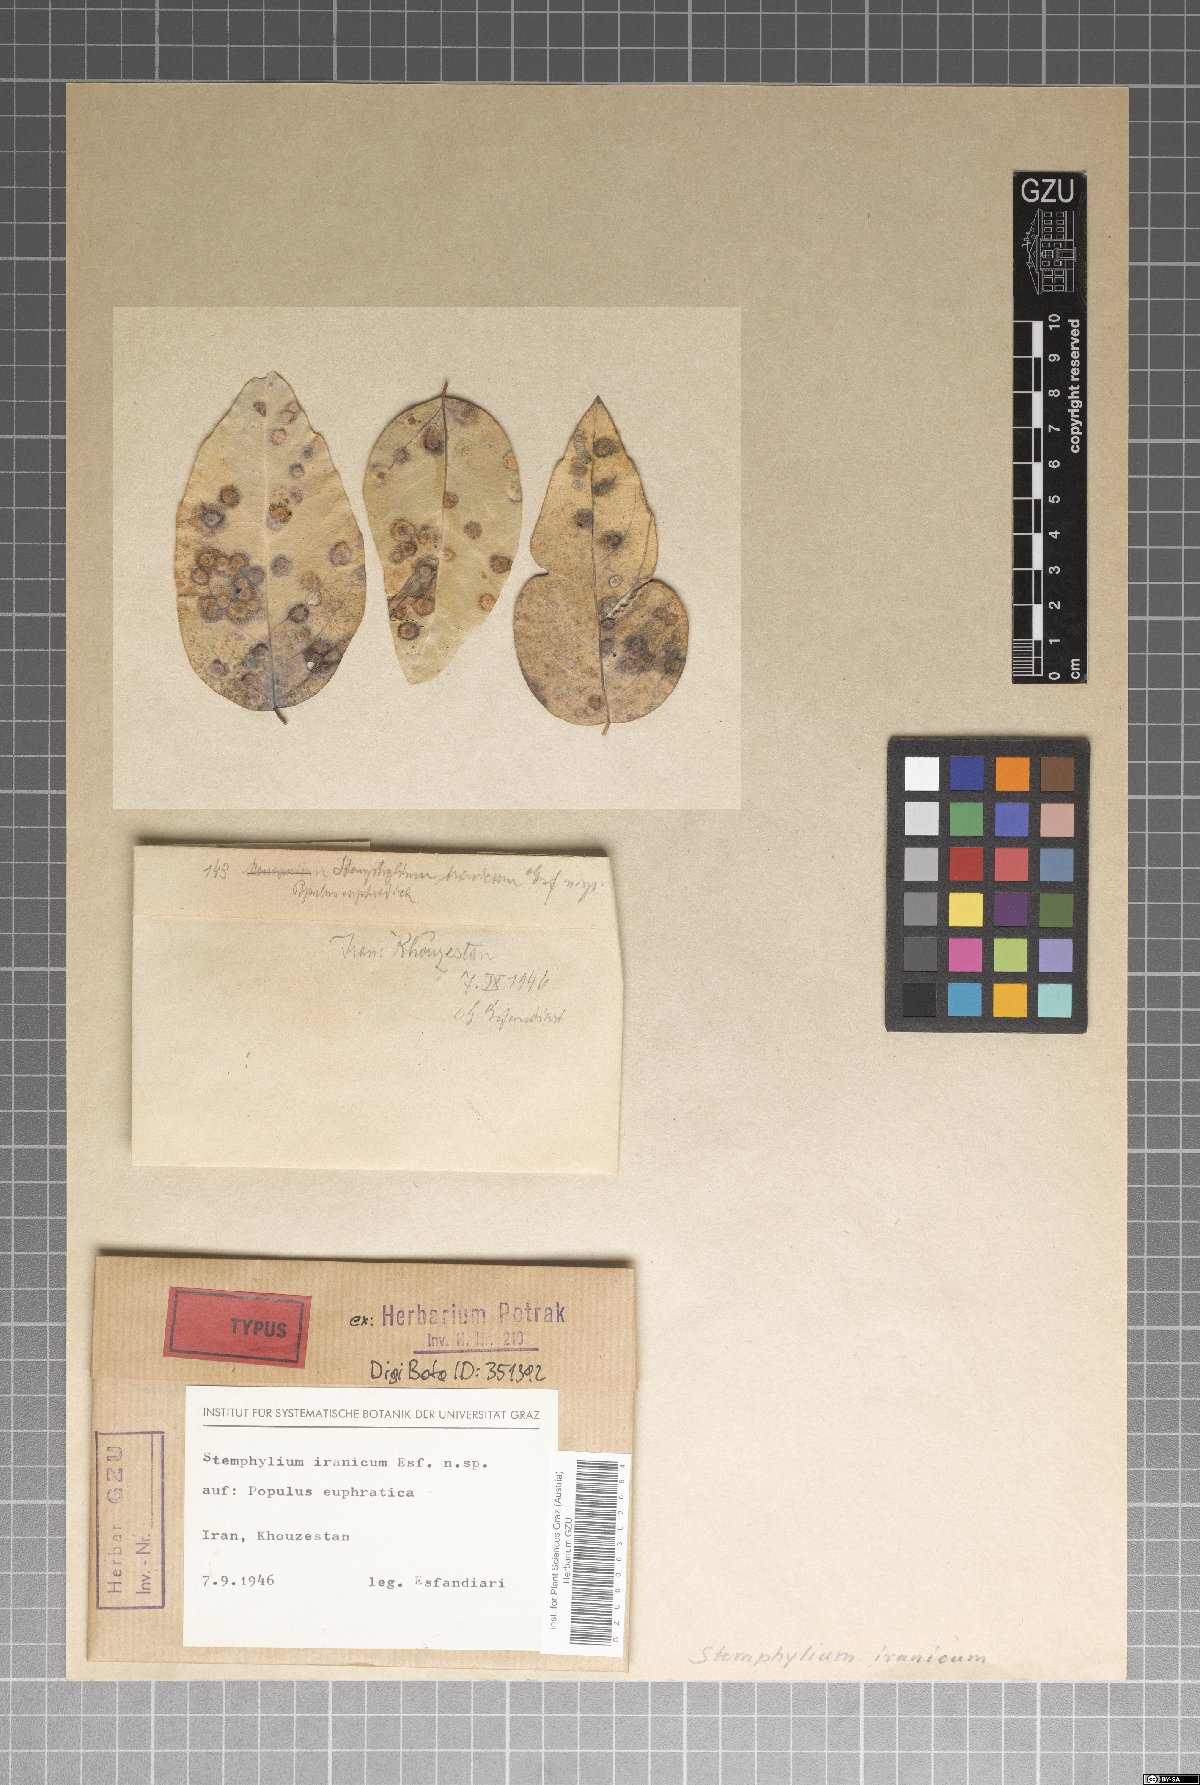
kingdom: Fungi
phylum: Ascomycota
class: Dothideomycetes
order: Pleosporales
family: Pleosporaceae
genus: Stemphylium
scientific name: Stemphylium iranicum
